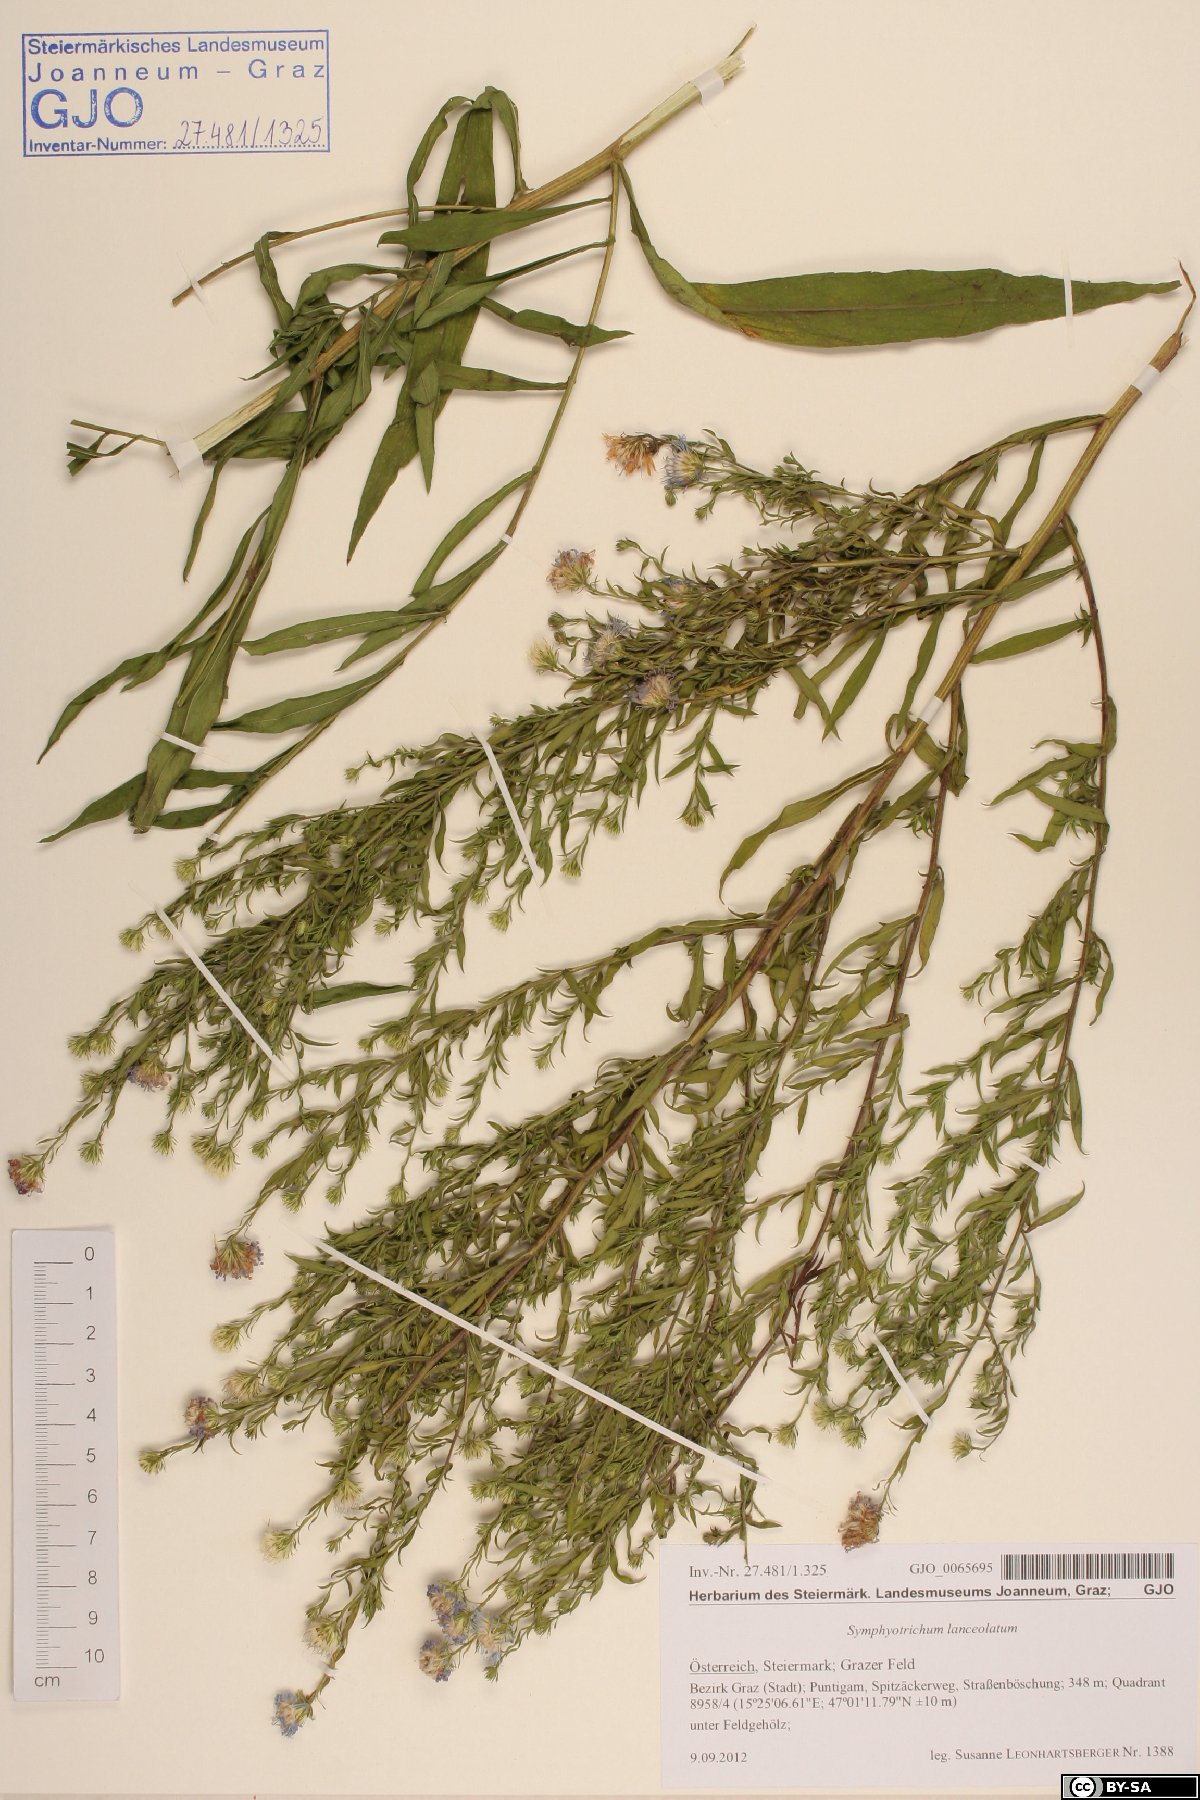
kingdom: Plantae
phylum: Tracheophyta
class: Magnoliopsida
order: Asterales
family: Asteraceae
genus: Symphyotrichum
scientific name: Symphyotrichum lanceolatum
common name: Panicled aster
